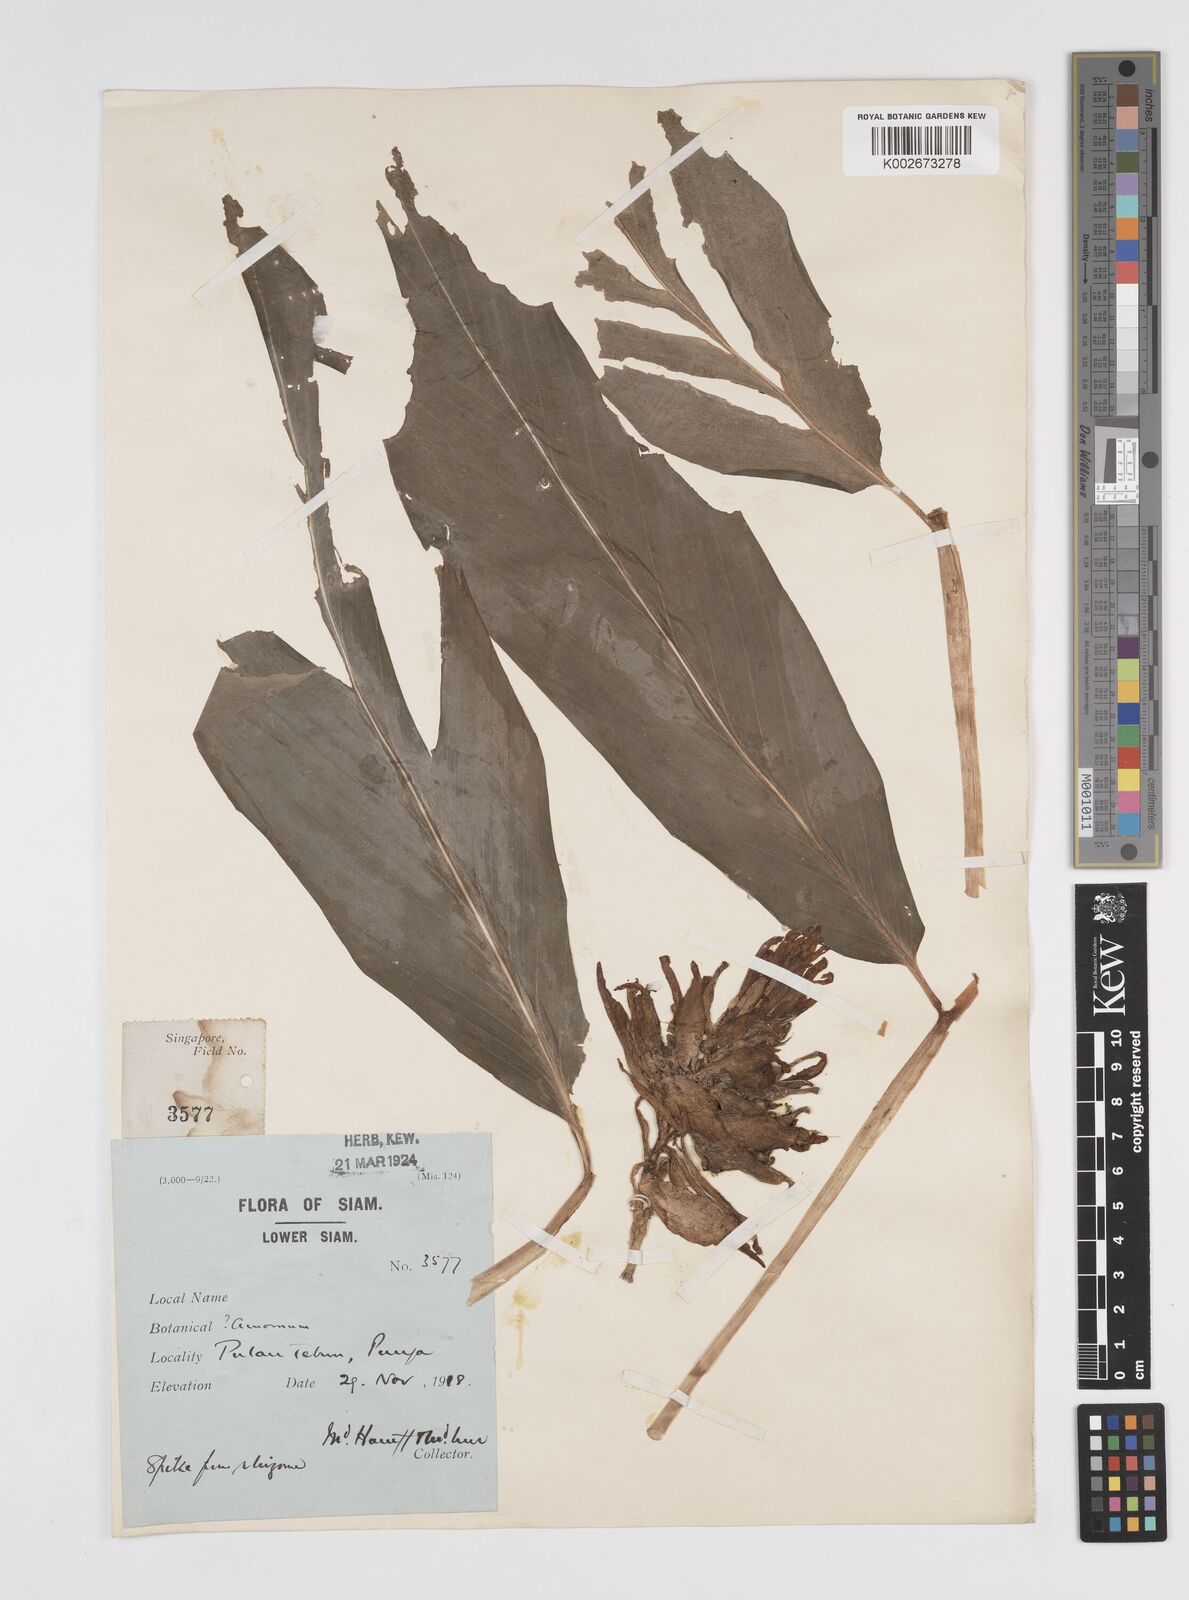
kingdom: Plantae
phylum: Tracheophyta
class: Liliopsida
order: Zingiberales
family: Zingiberaceae
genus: Amomum
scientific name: Amomum
